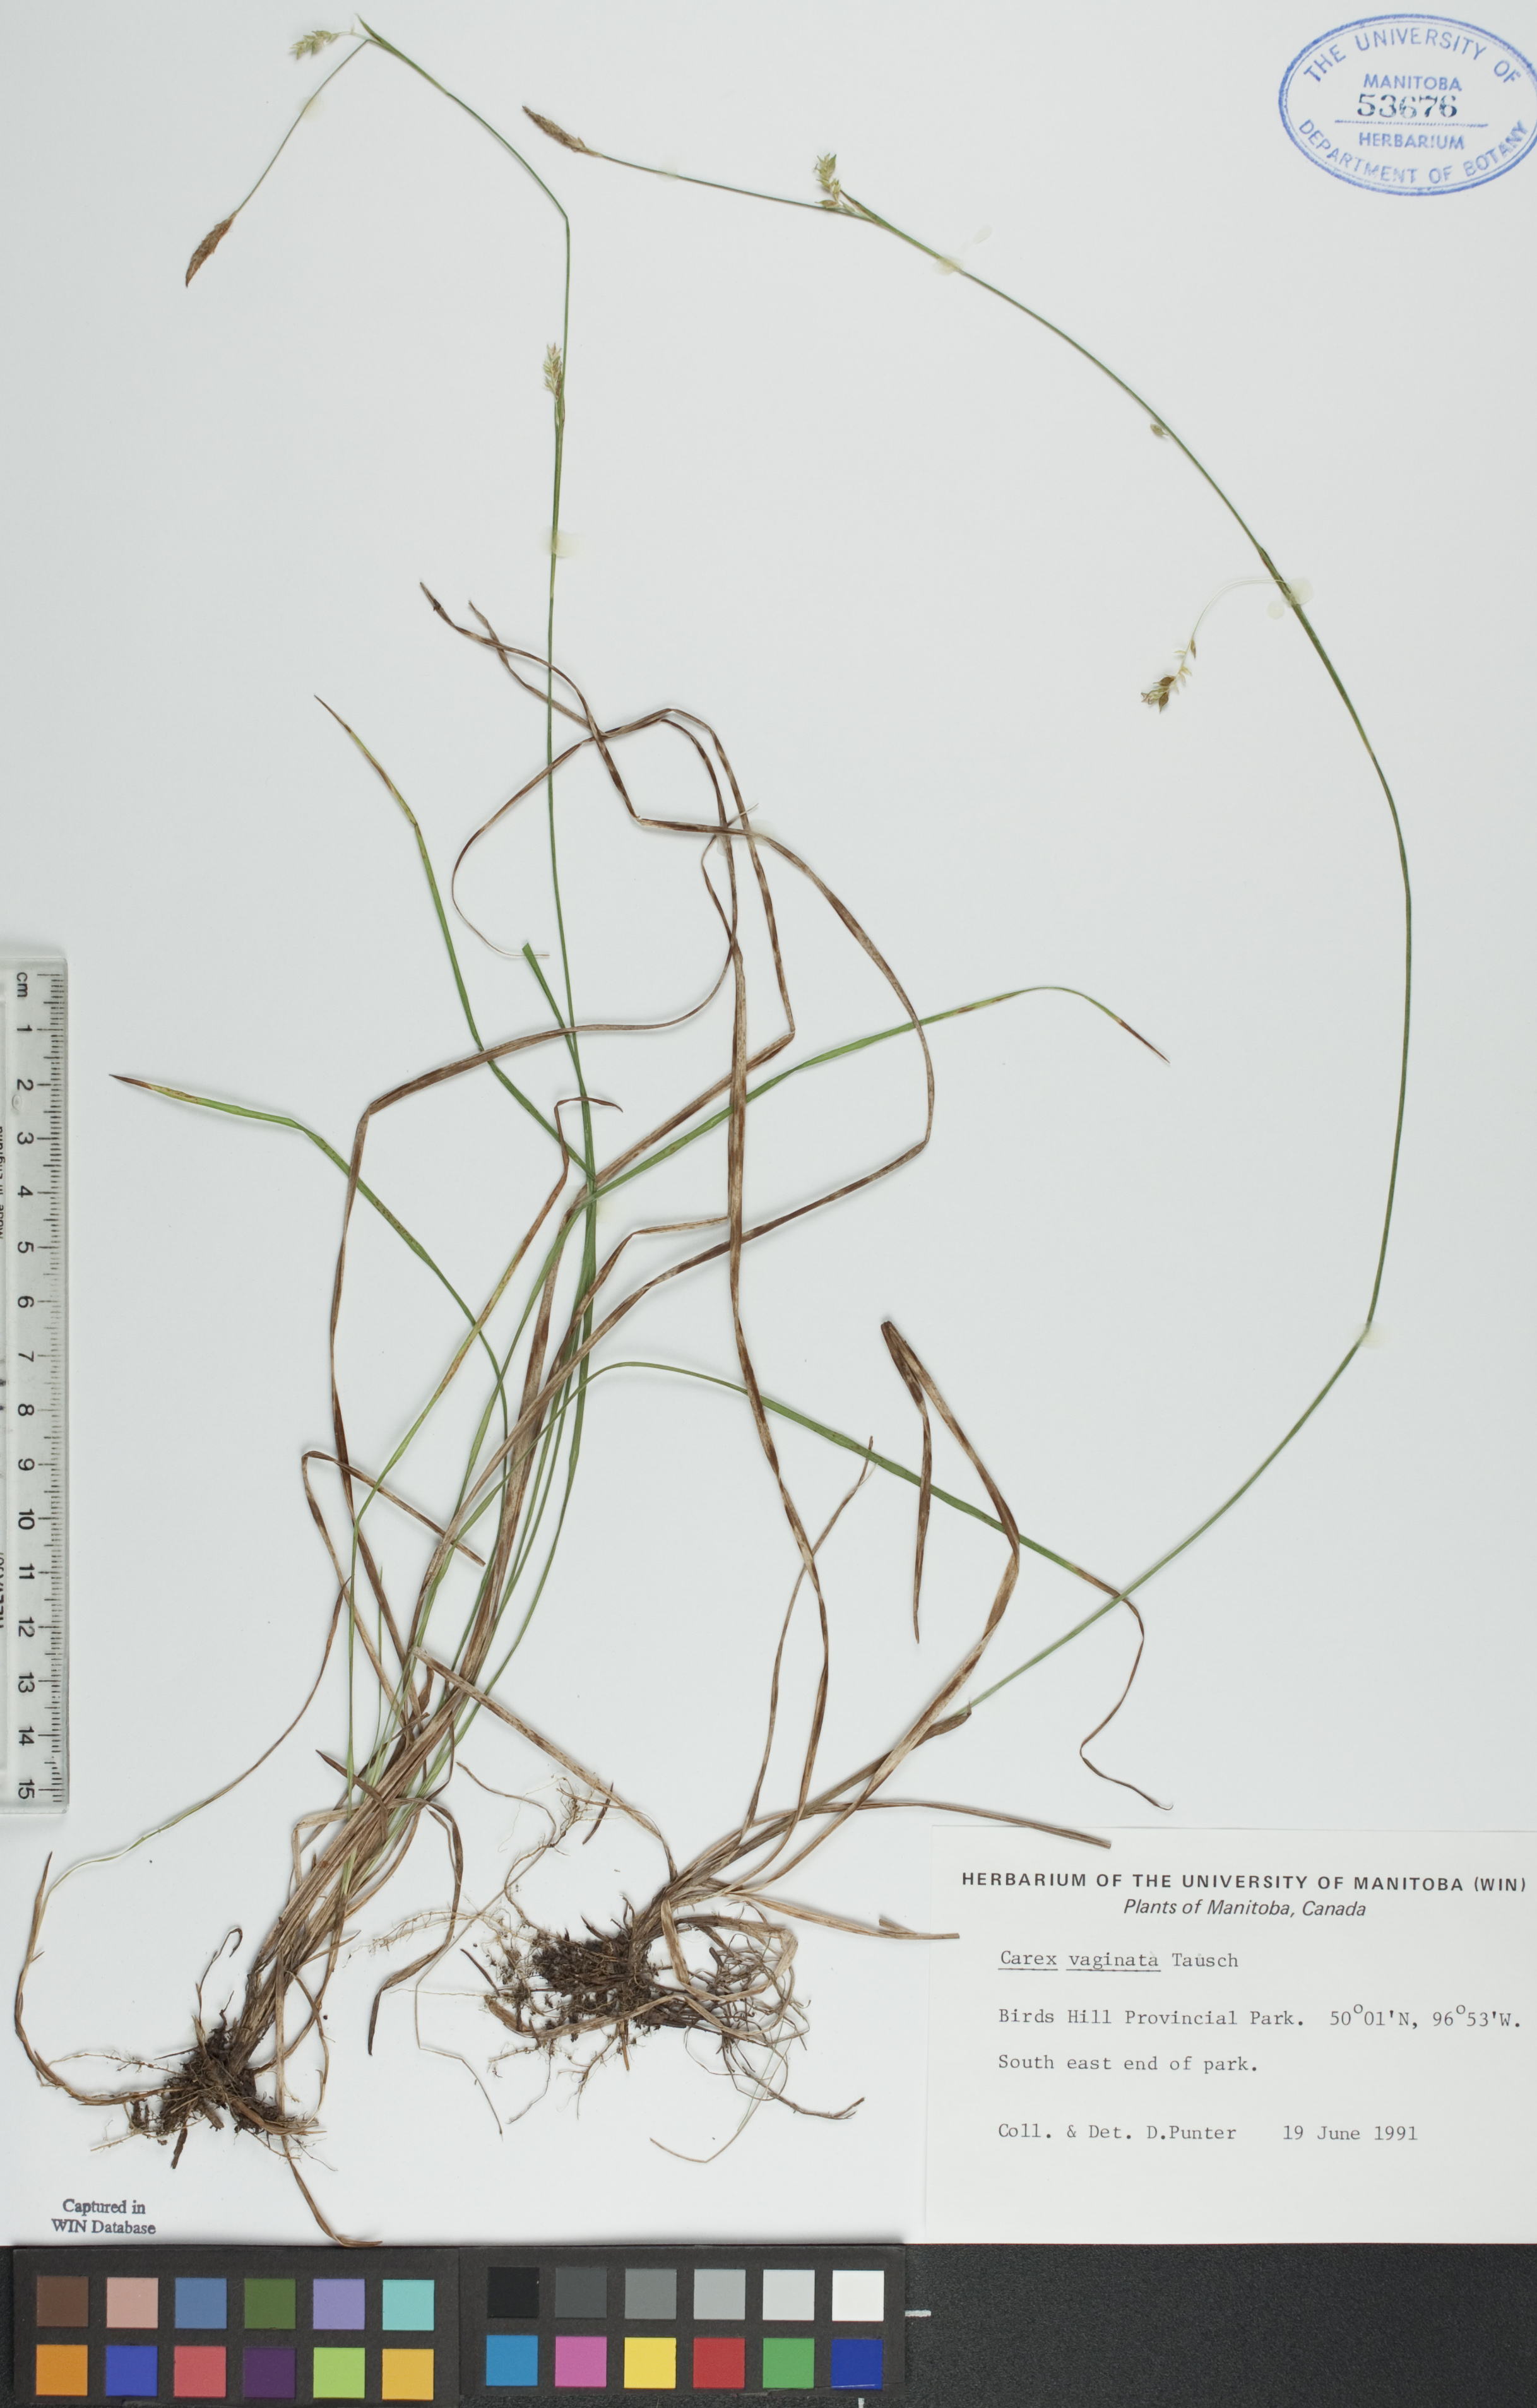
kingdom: Plantae
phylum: Tracheophyta
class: Liliopsida
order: Poales
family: Cyperaceae
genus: Carex
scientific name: Carex vaginata
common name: Sheathed sedge
